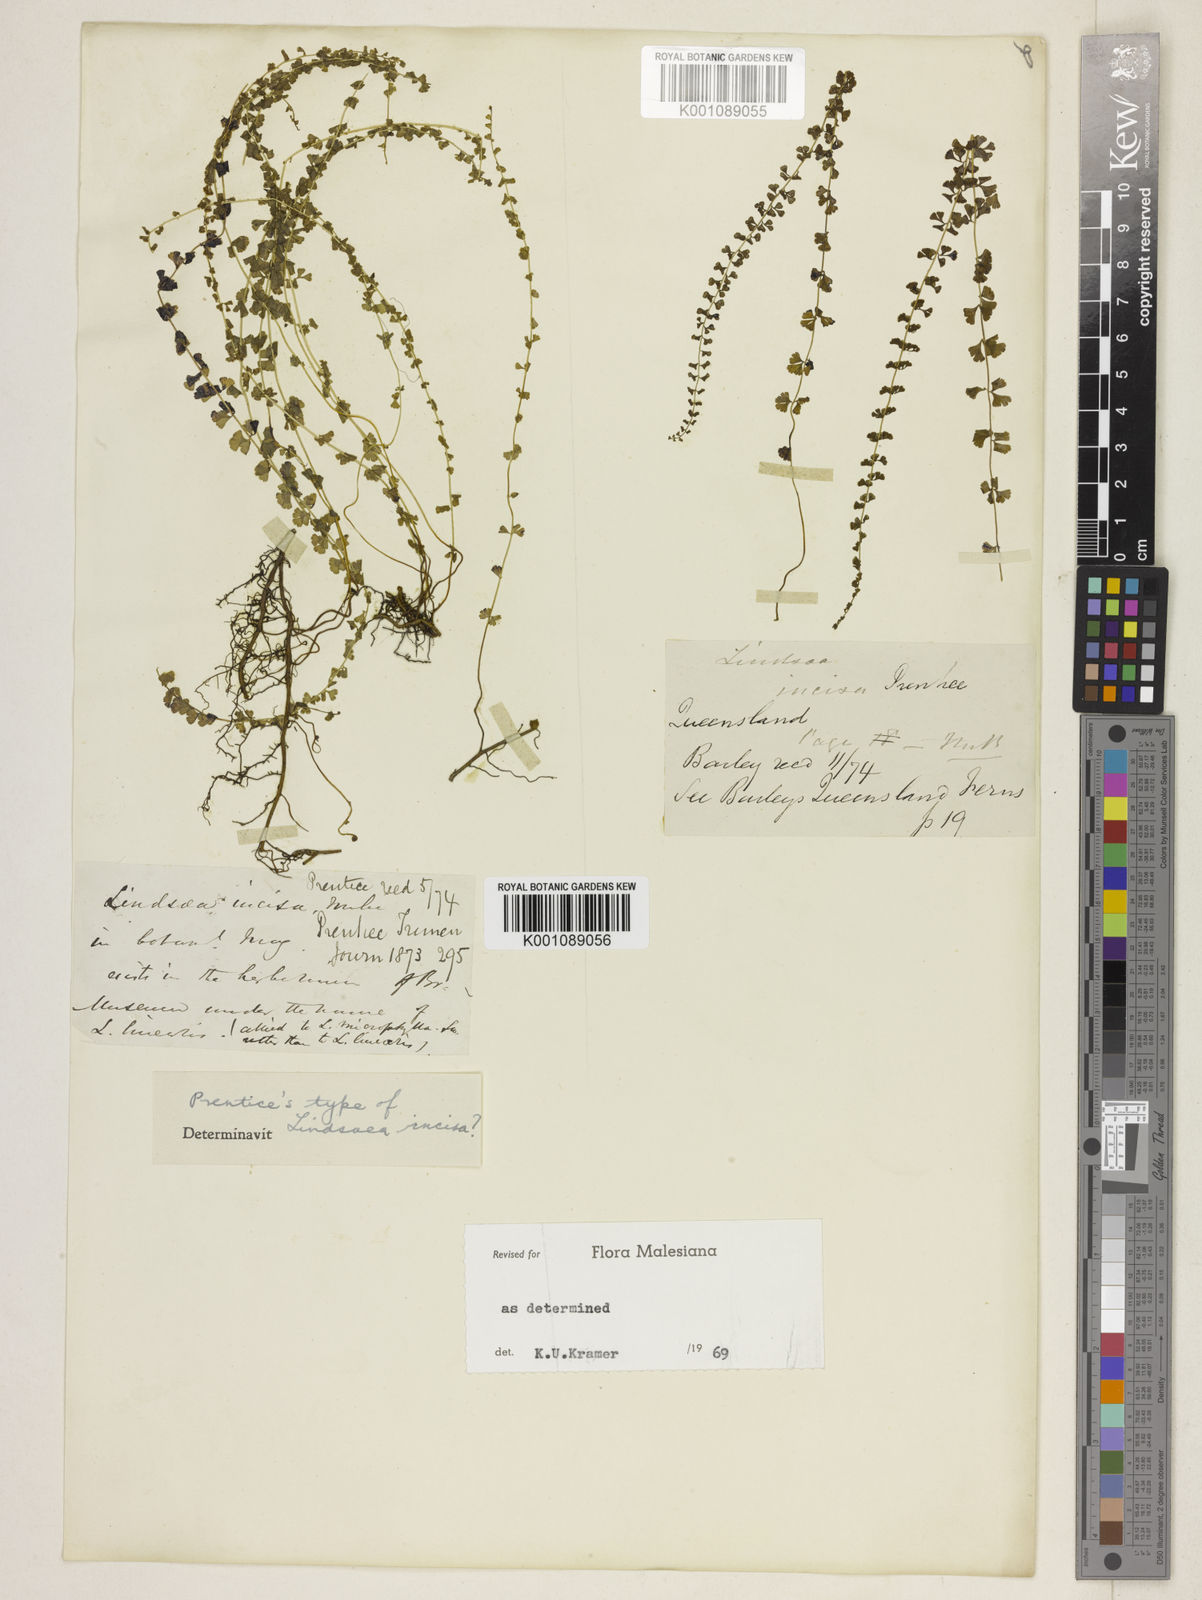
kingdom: Plantae
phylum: Tracheophyta
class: Polypodiopsida
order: Polypodiales
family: Lindsaeaceae
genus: Lindsaea
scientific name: Lindsaea incisa
